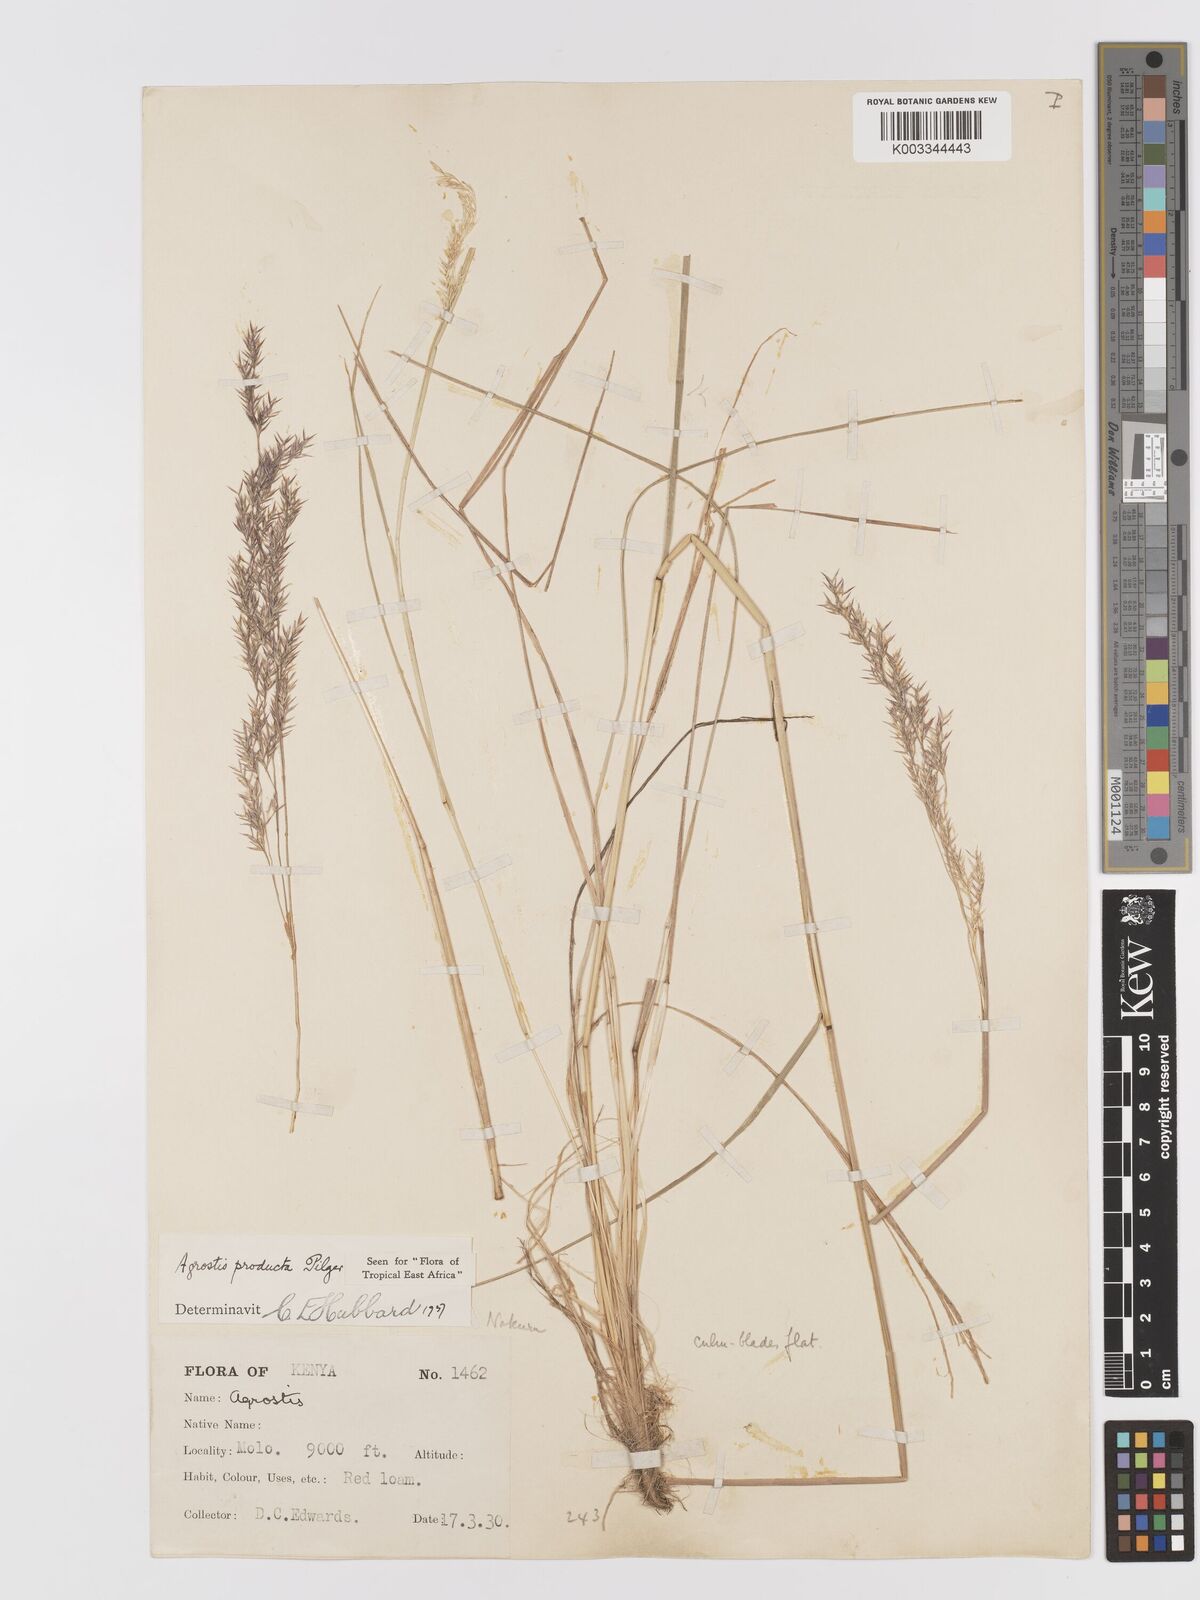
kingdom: Plantae
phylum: Tracheophyta
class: Liliopsida
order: Poales
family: Poaceae
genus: Agrostis
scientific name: Agrostis producta
